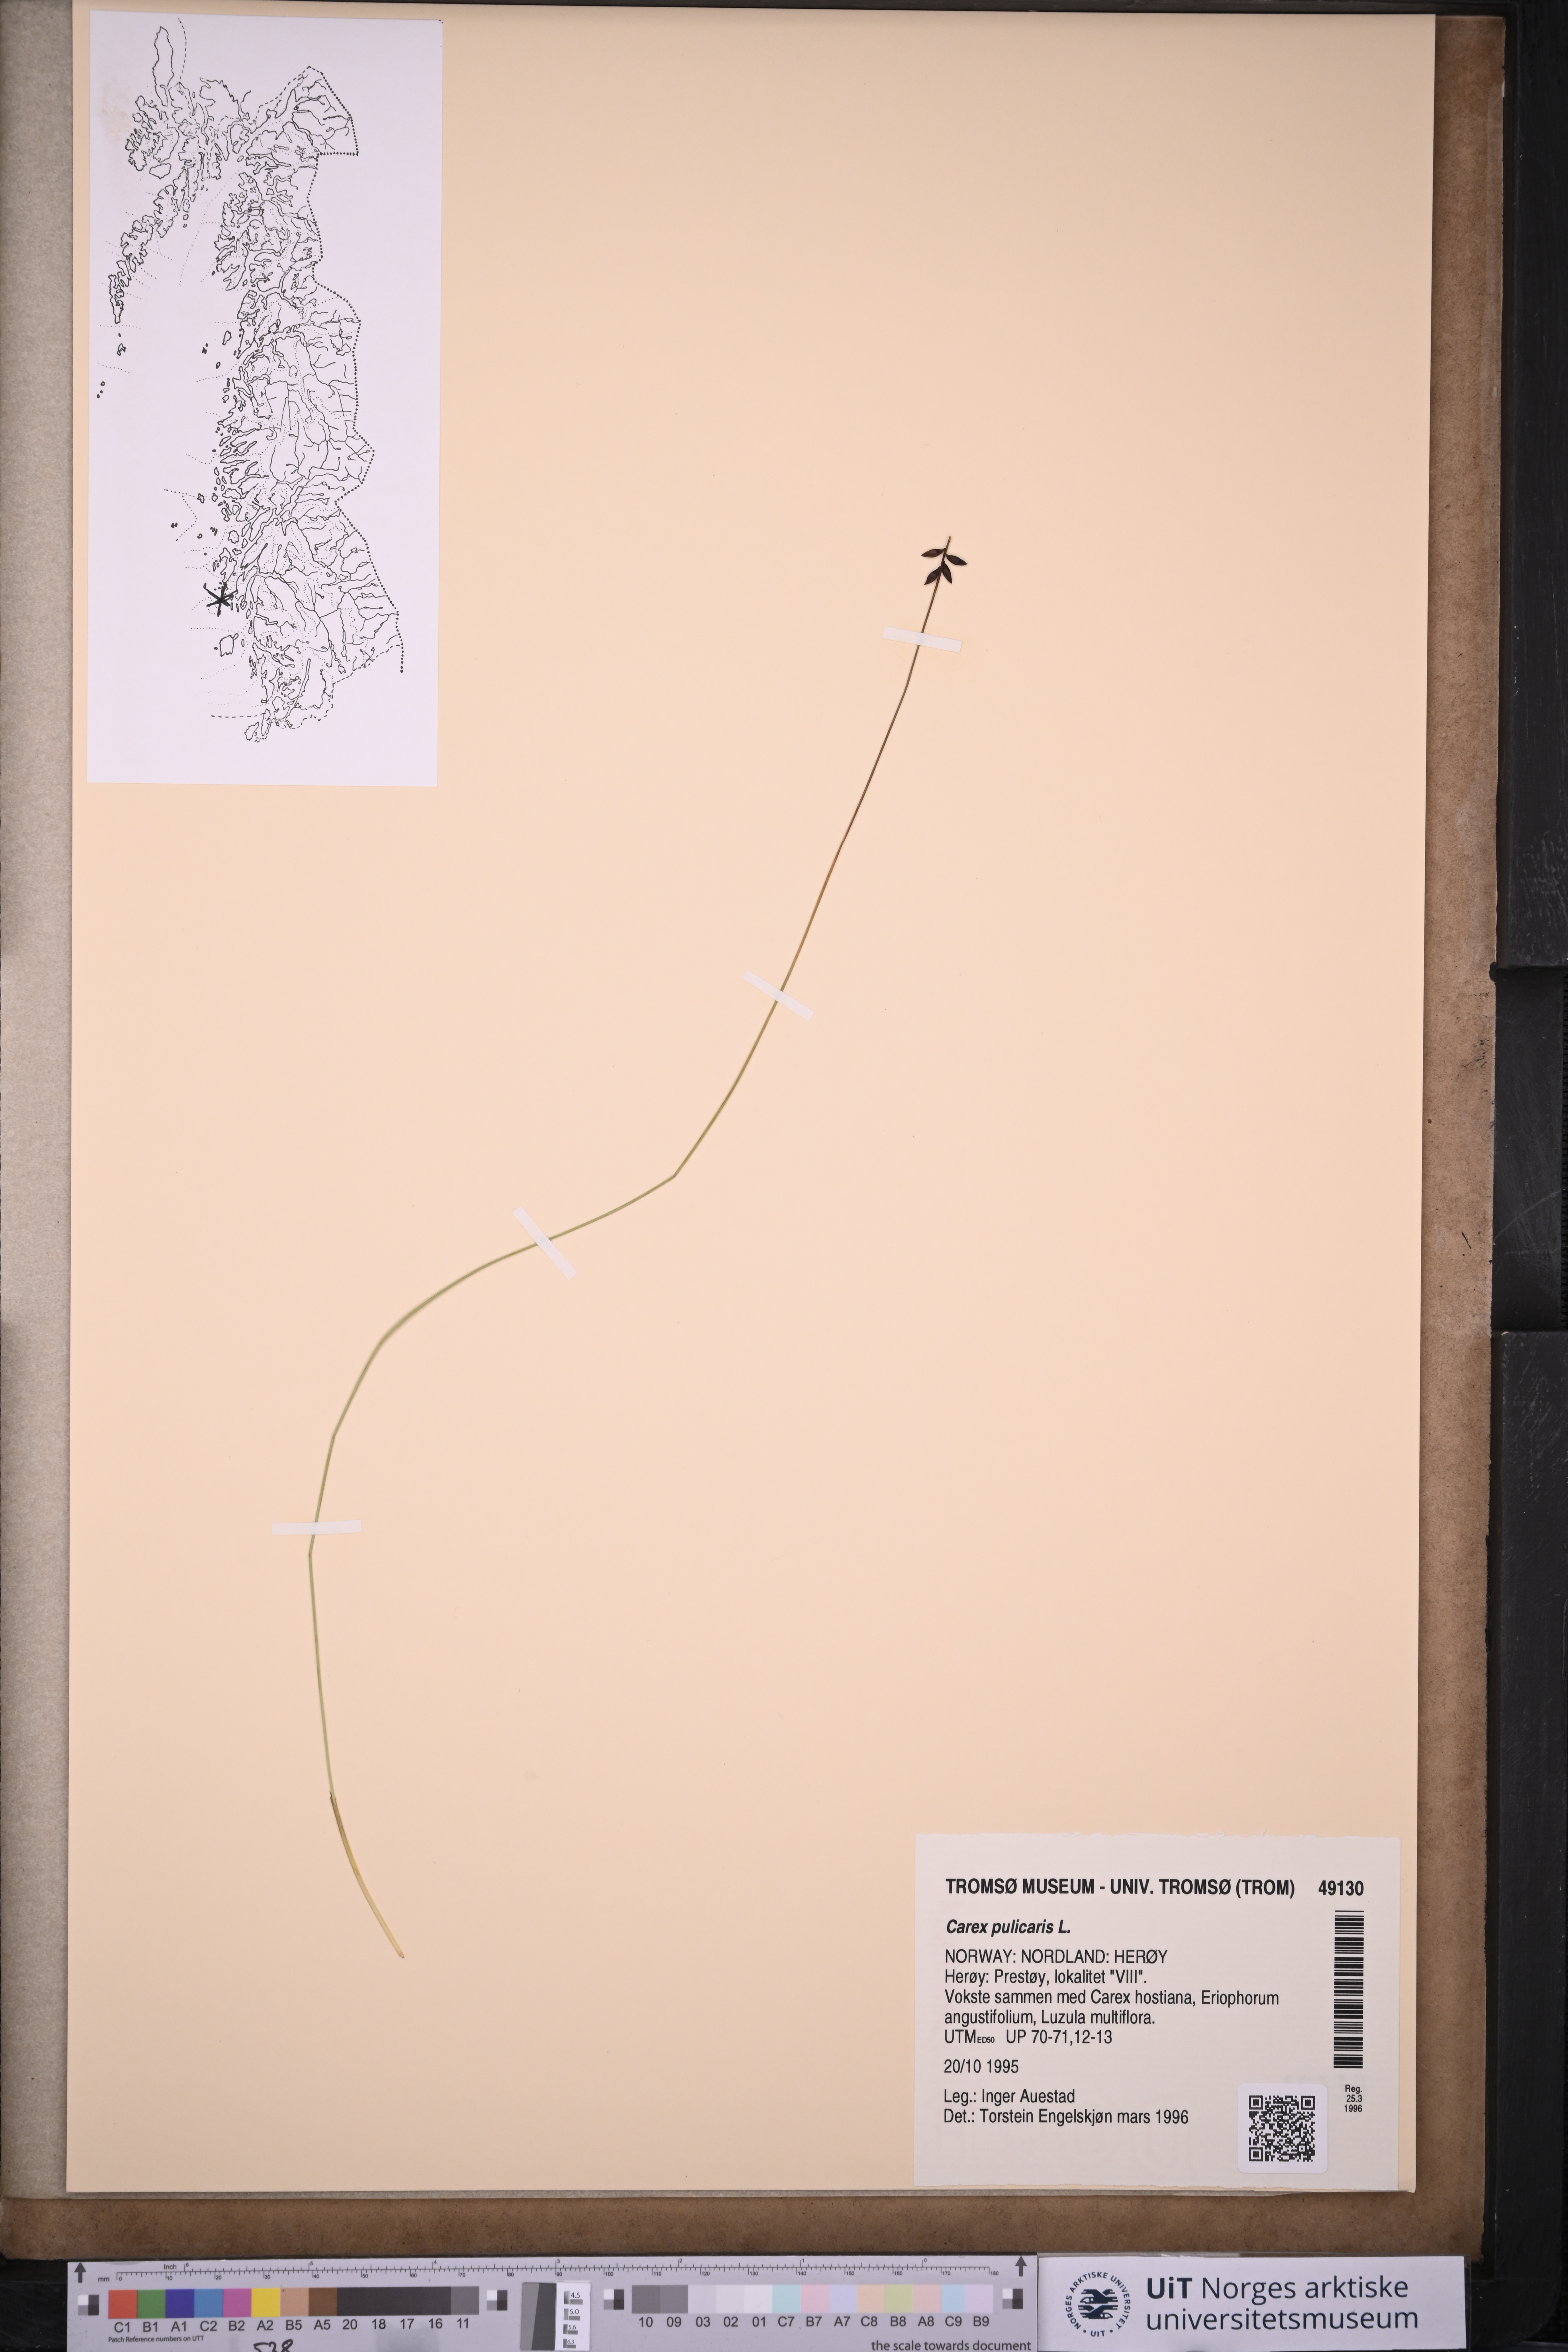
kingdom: Plantae
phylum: Tracheophyta
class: Liliopsida
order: Poales
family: Cyperaceae
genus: Carex
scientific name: Carex pulicaris
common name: Flea sedge
